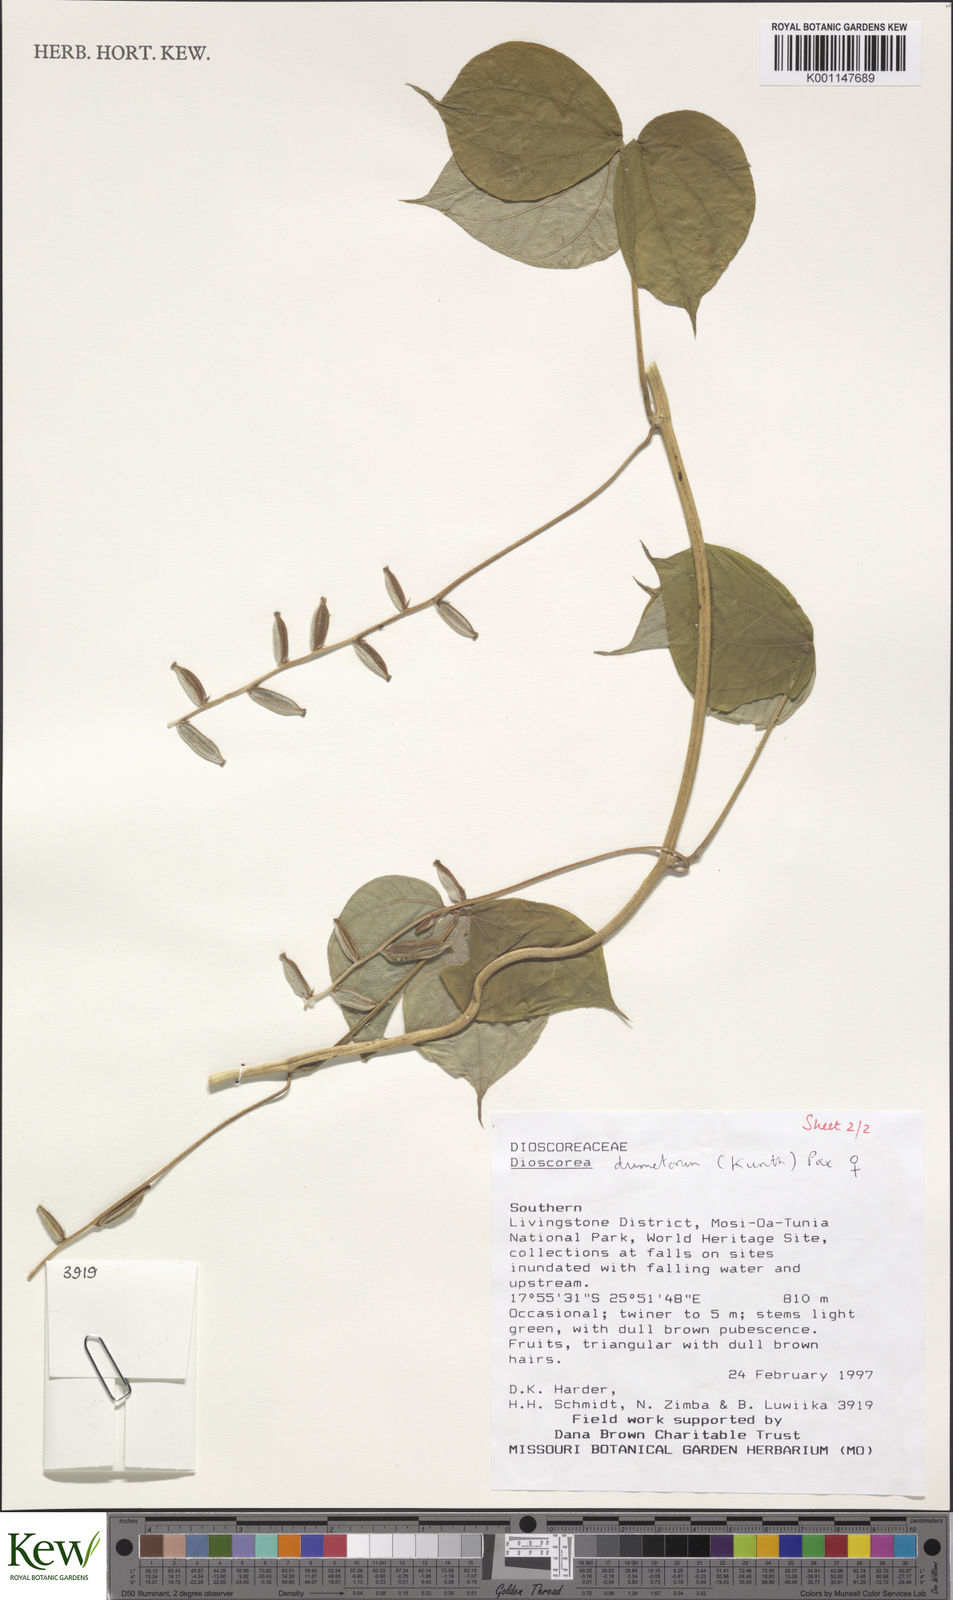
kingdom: Plantae
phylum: Tracheophyta
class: Liliopsida
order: Dioscoreales
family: Dioscoreaceae
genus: Dioscorea
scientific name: Dioscorea dumetorum
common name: African bitter yam
